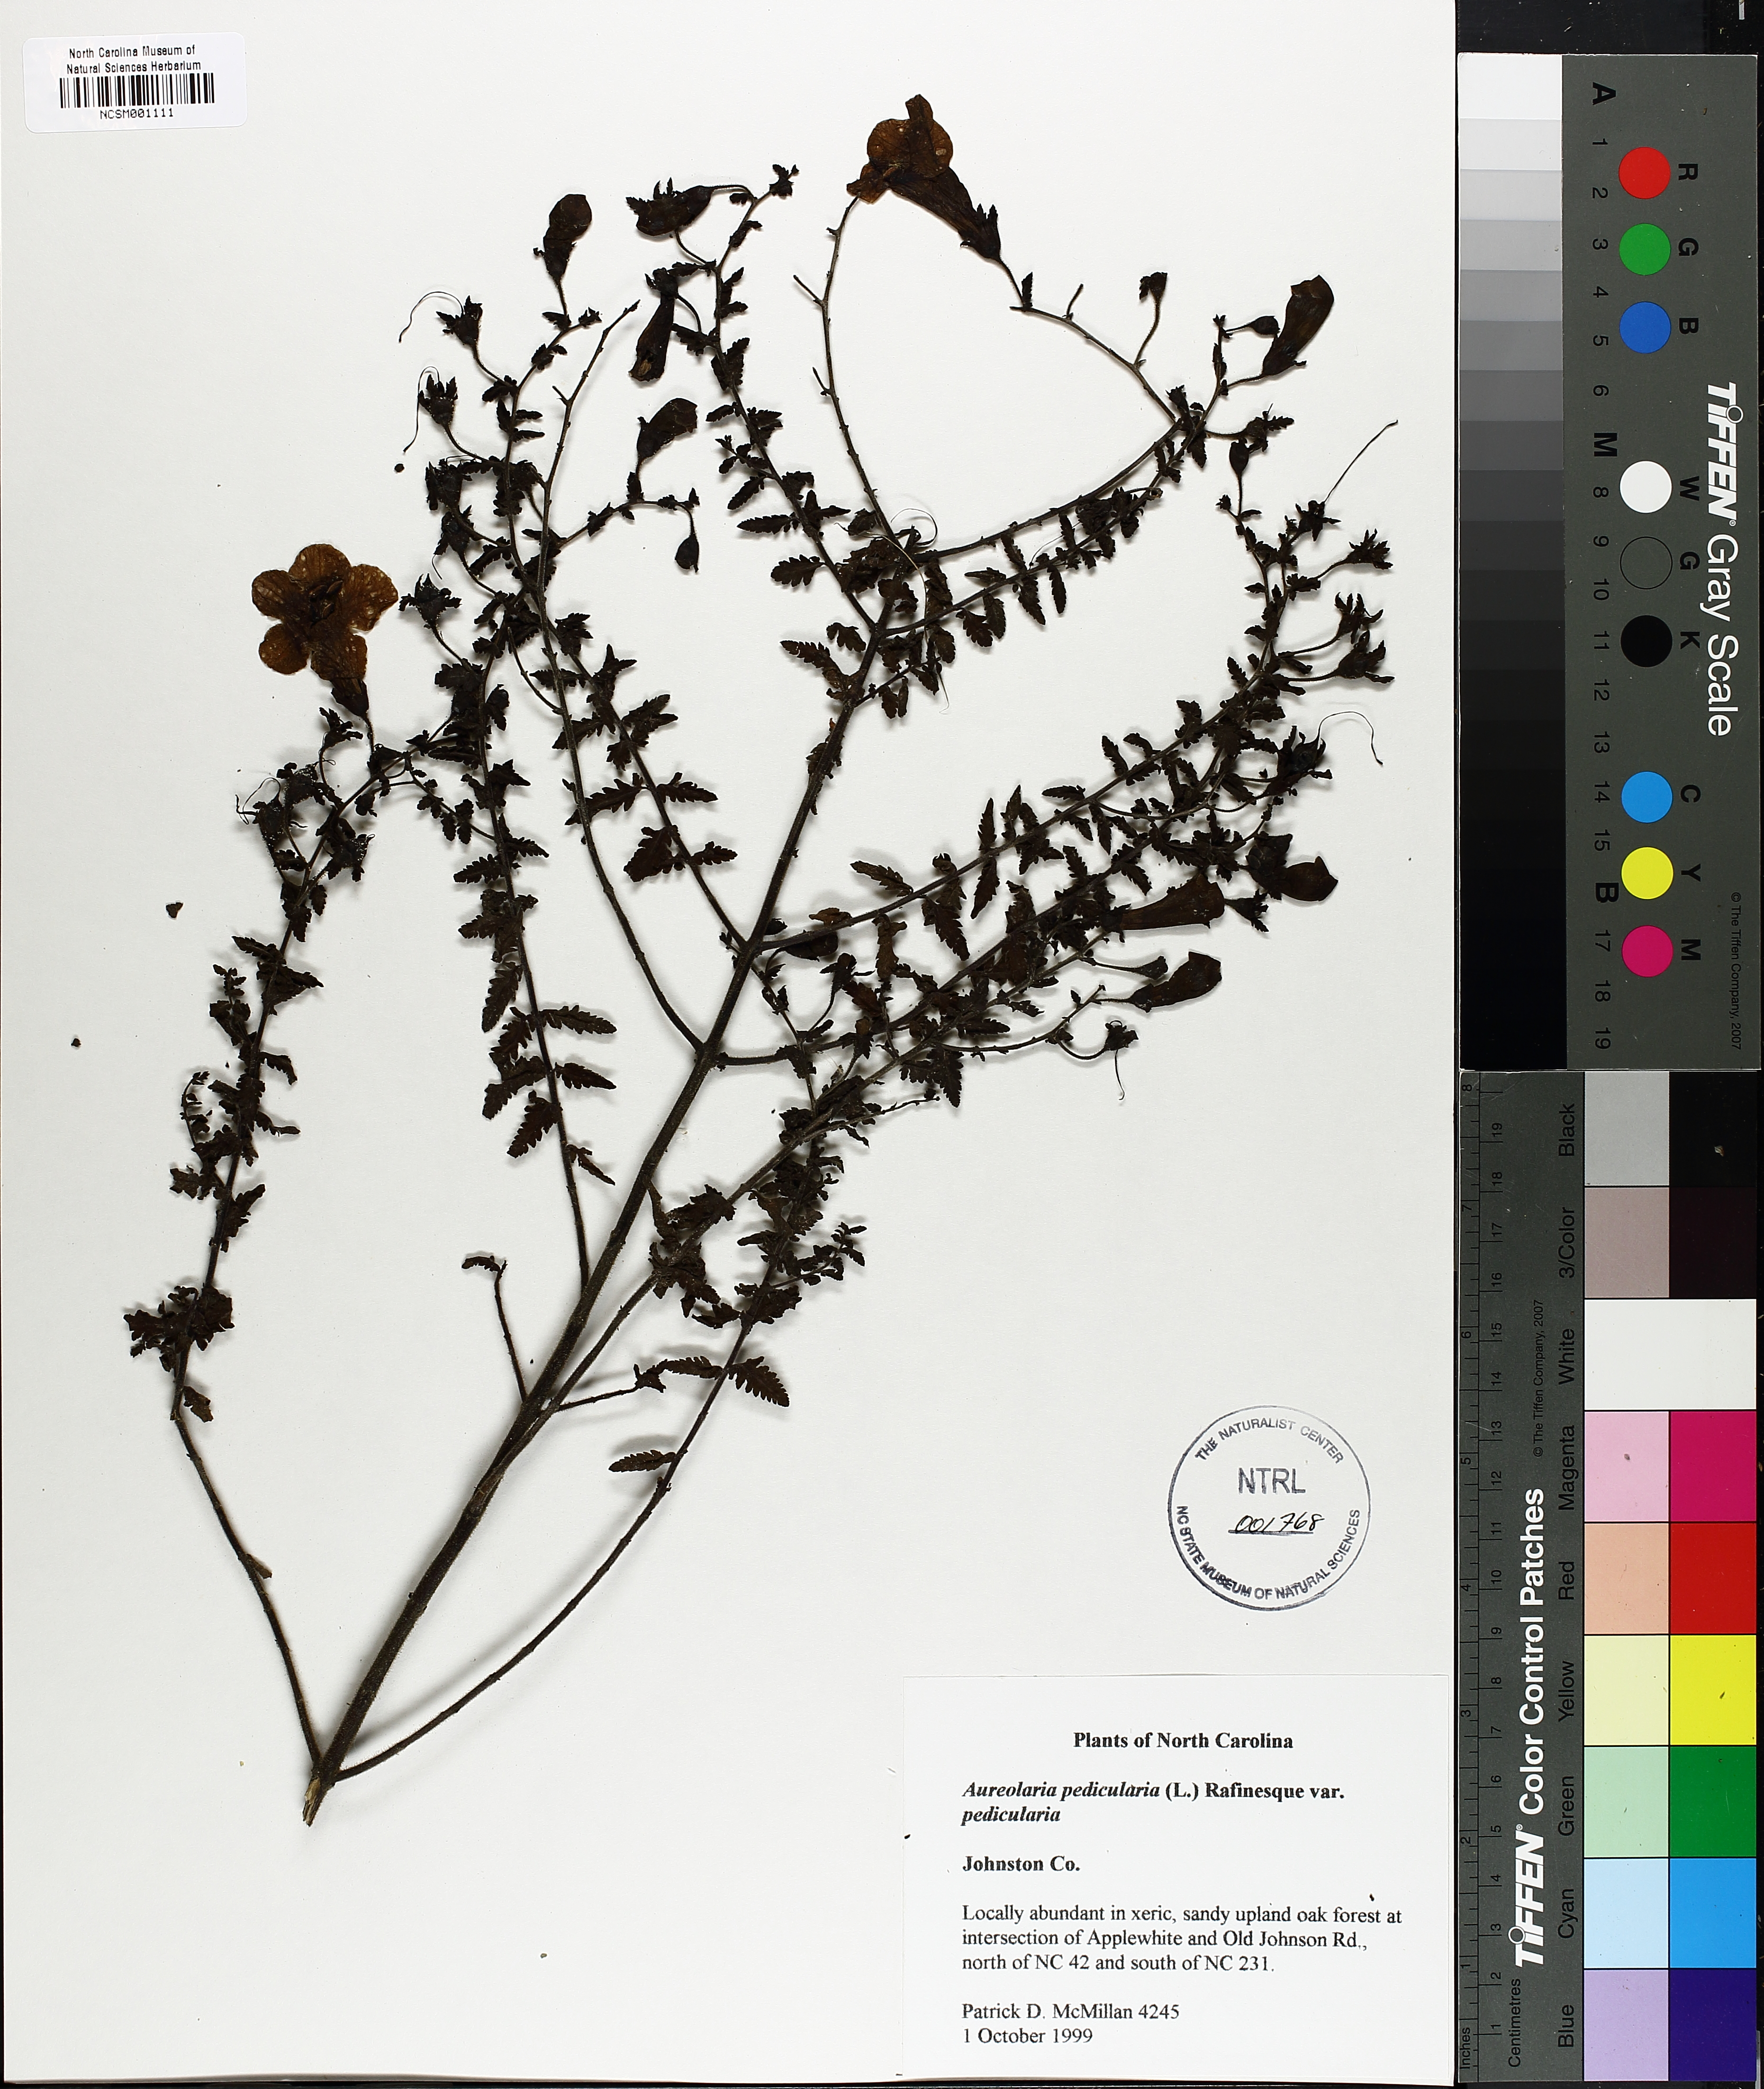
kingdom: Plantae
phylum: Tracheophyta
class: Magnoliopsida
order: Lamiales
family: Orobanchaceae
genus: Aureolaria
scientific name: Aureolaria pedicularia
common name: Annual false foxglove
